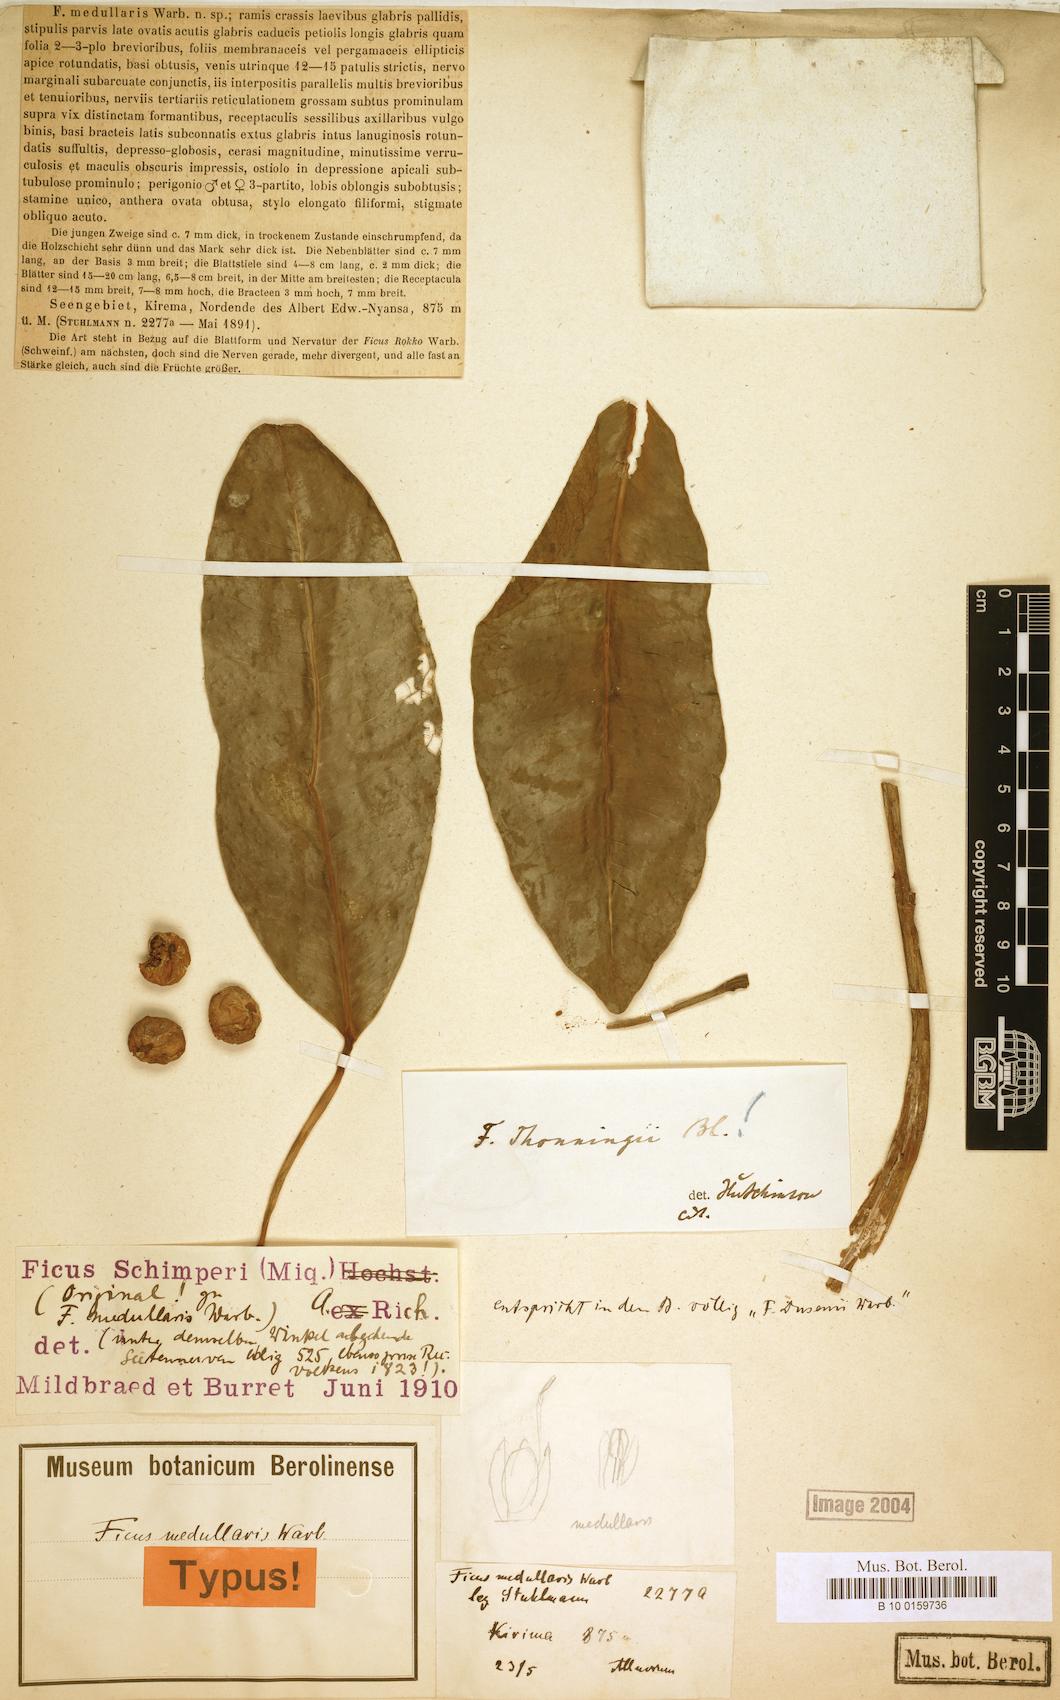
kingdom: Plantae
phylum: Tracheophyta
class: Magnoliopsida
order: Rosales
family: Moraceae
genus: Ficus
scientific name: Ficus thonningii
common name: Fig
